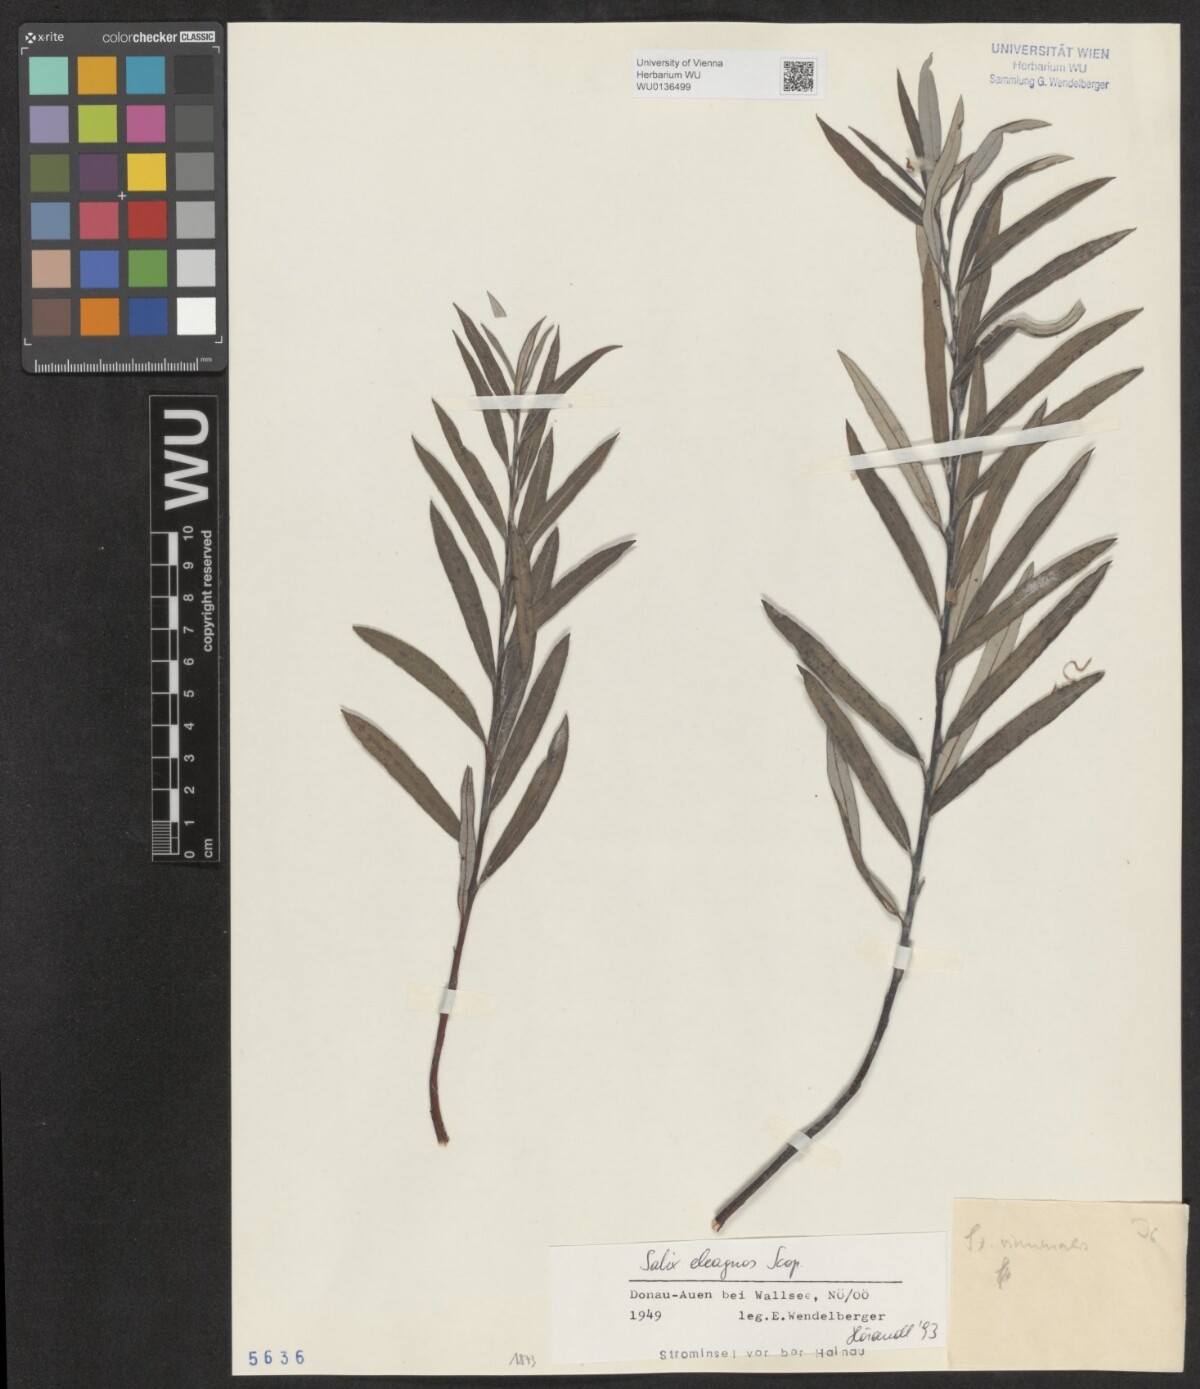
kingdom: Plantae
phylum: Tracheophyta
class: Magnoliopsida
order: Malpighiales
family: Salicaceae
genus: Salix
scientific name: Salix eleagnos
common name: Elaeagnus willow
